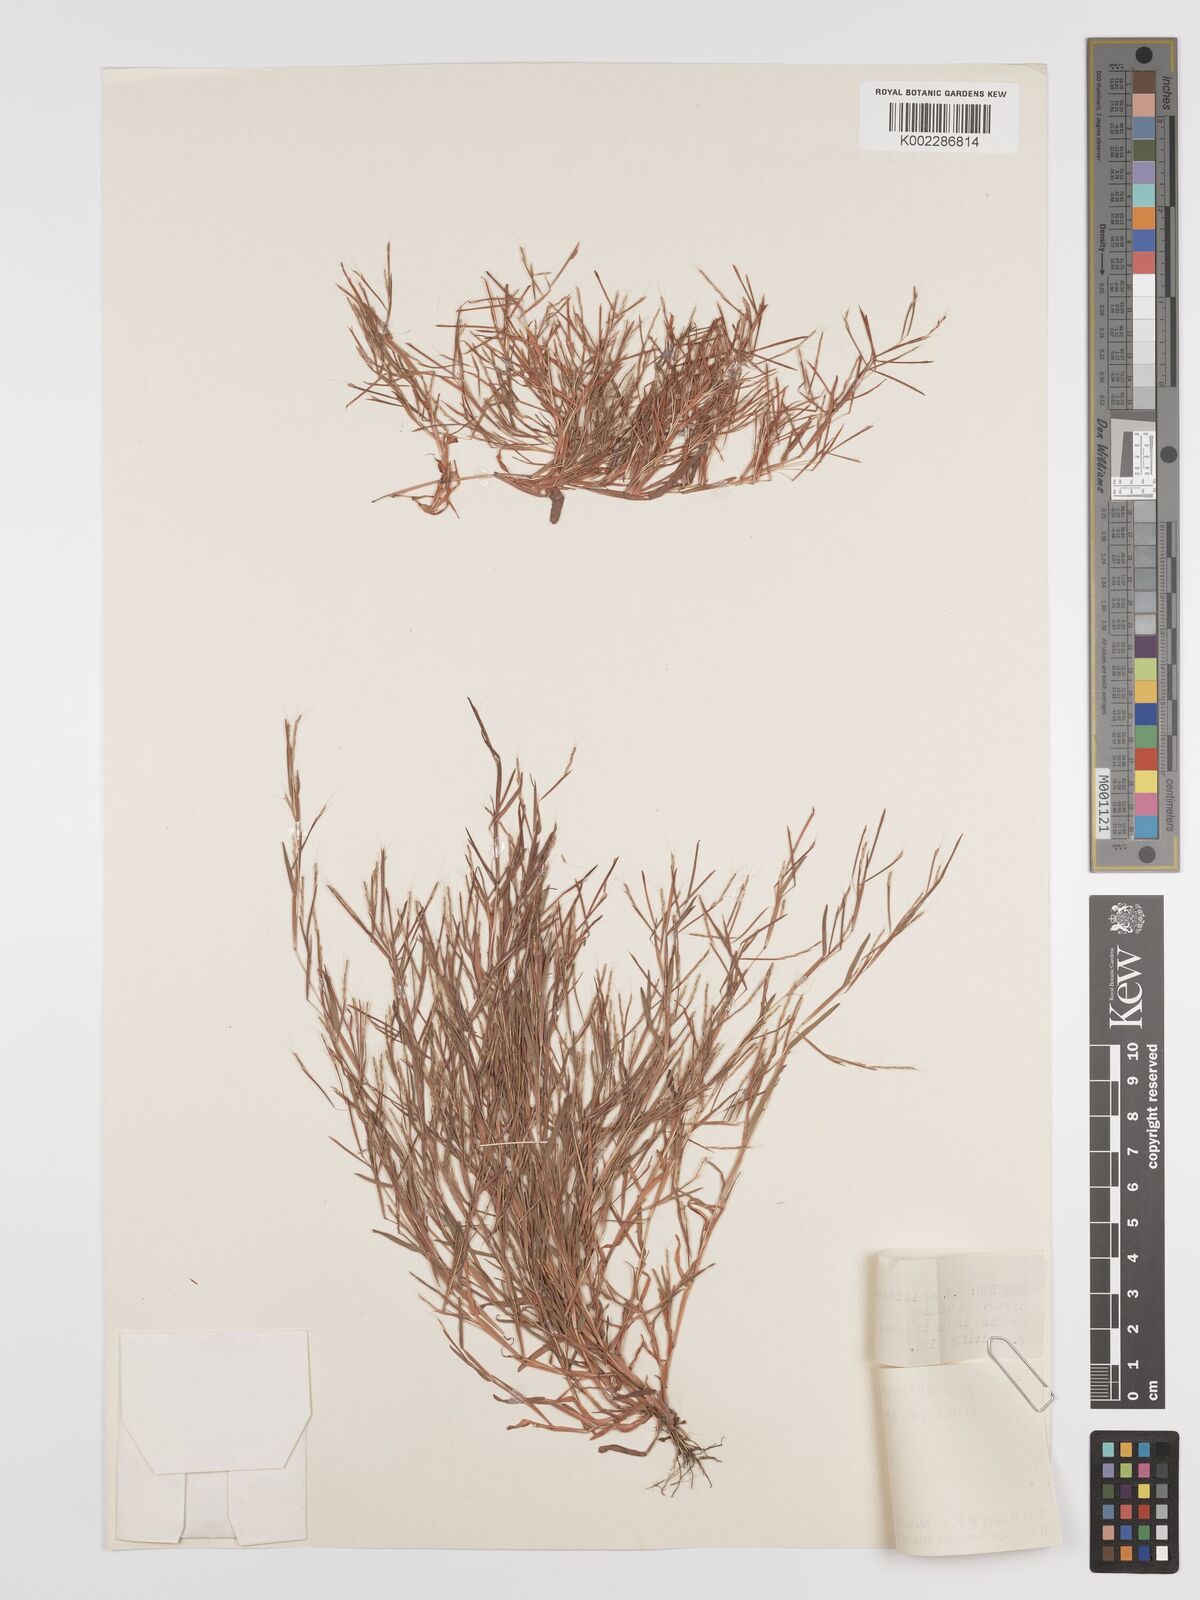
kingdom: Plantae
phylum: Tracheophyta
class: Liliopsida
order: Poales
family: Poaceae
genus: Schizachyrium
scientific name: Schizachyrium brevifolium
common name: Serillo dulce
